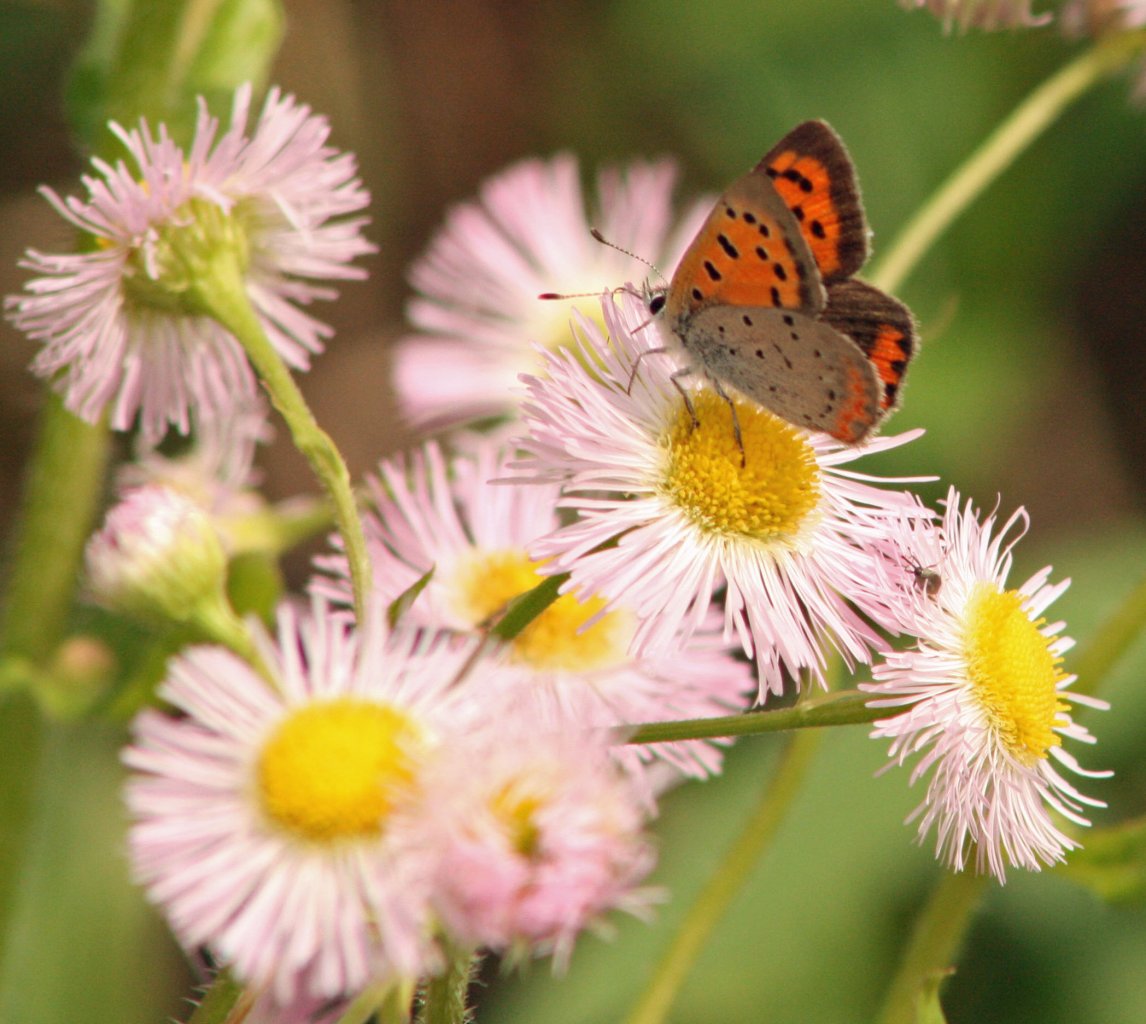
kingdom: Animalia
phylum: Arthropoda
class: Insecta
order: Lepidoptera
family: Lycaenidae
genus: Lycaena
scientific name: Lycaena phlaeas
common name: American Copper
